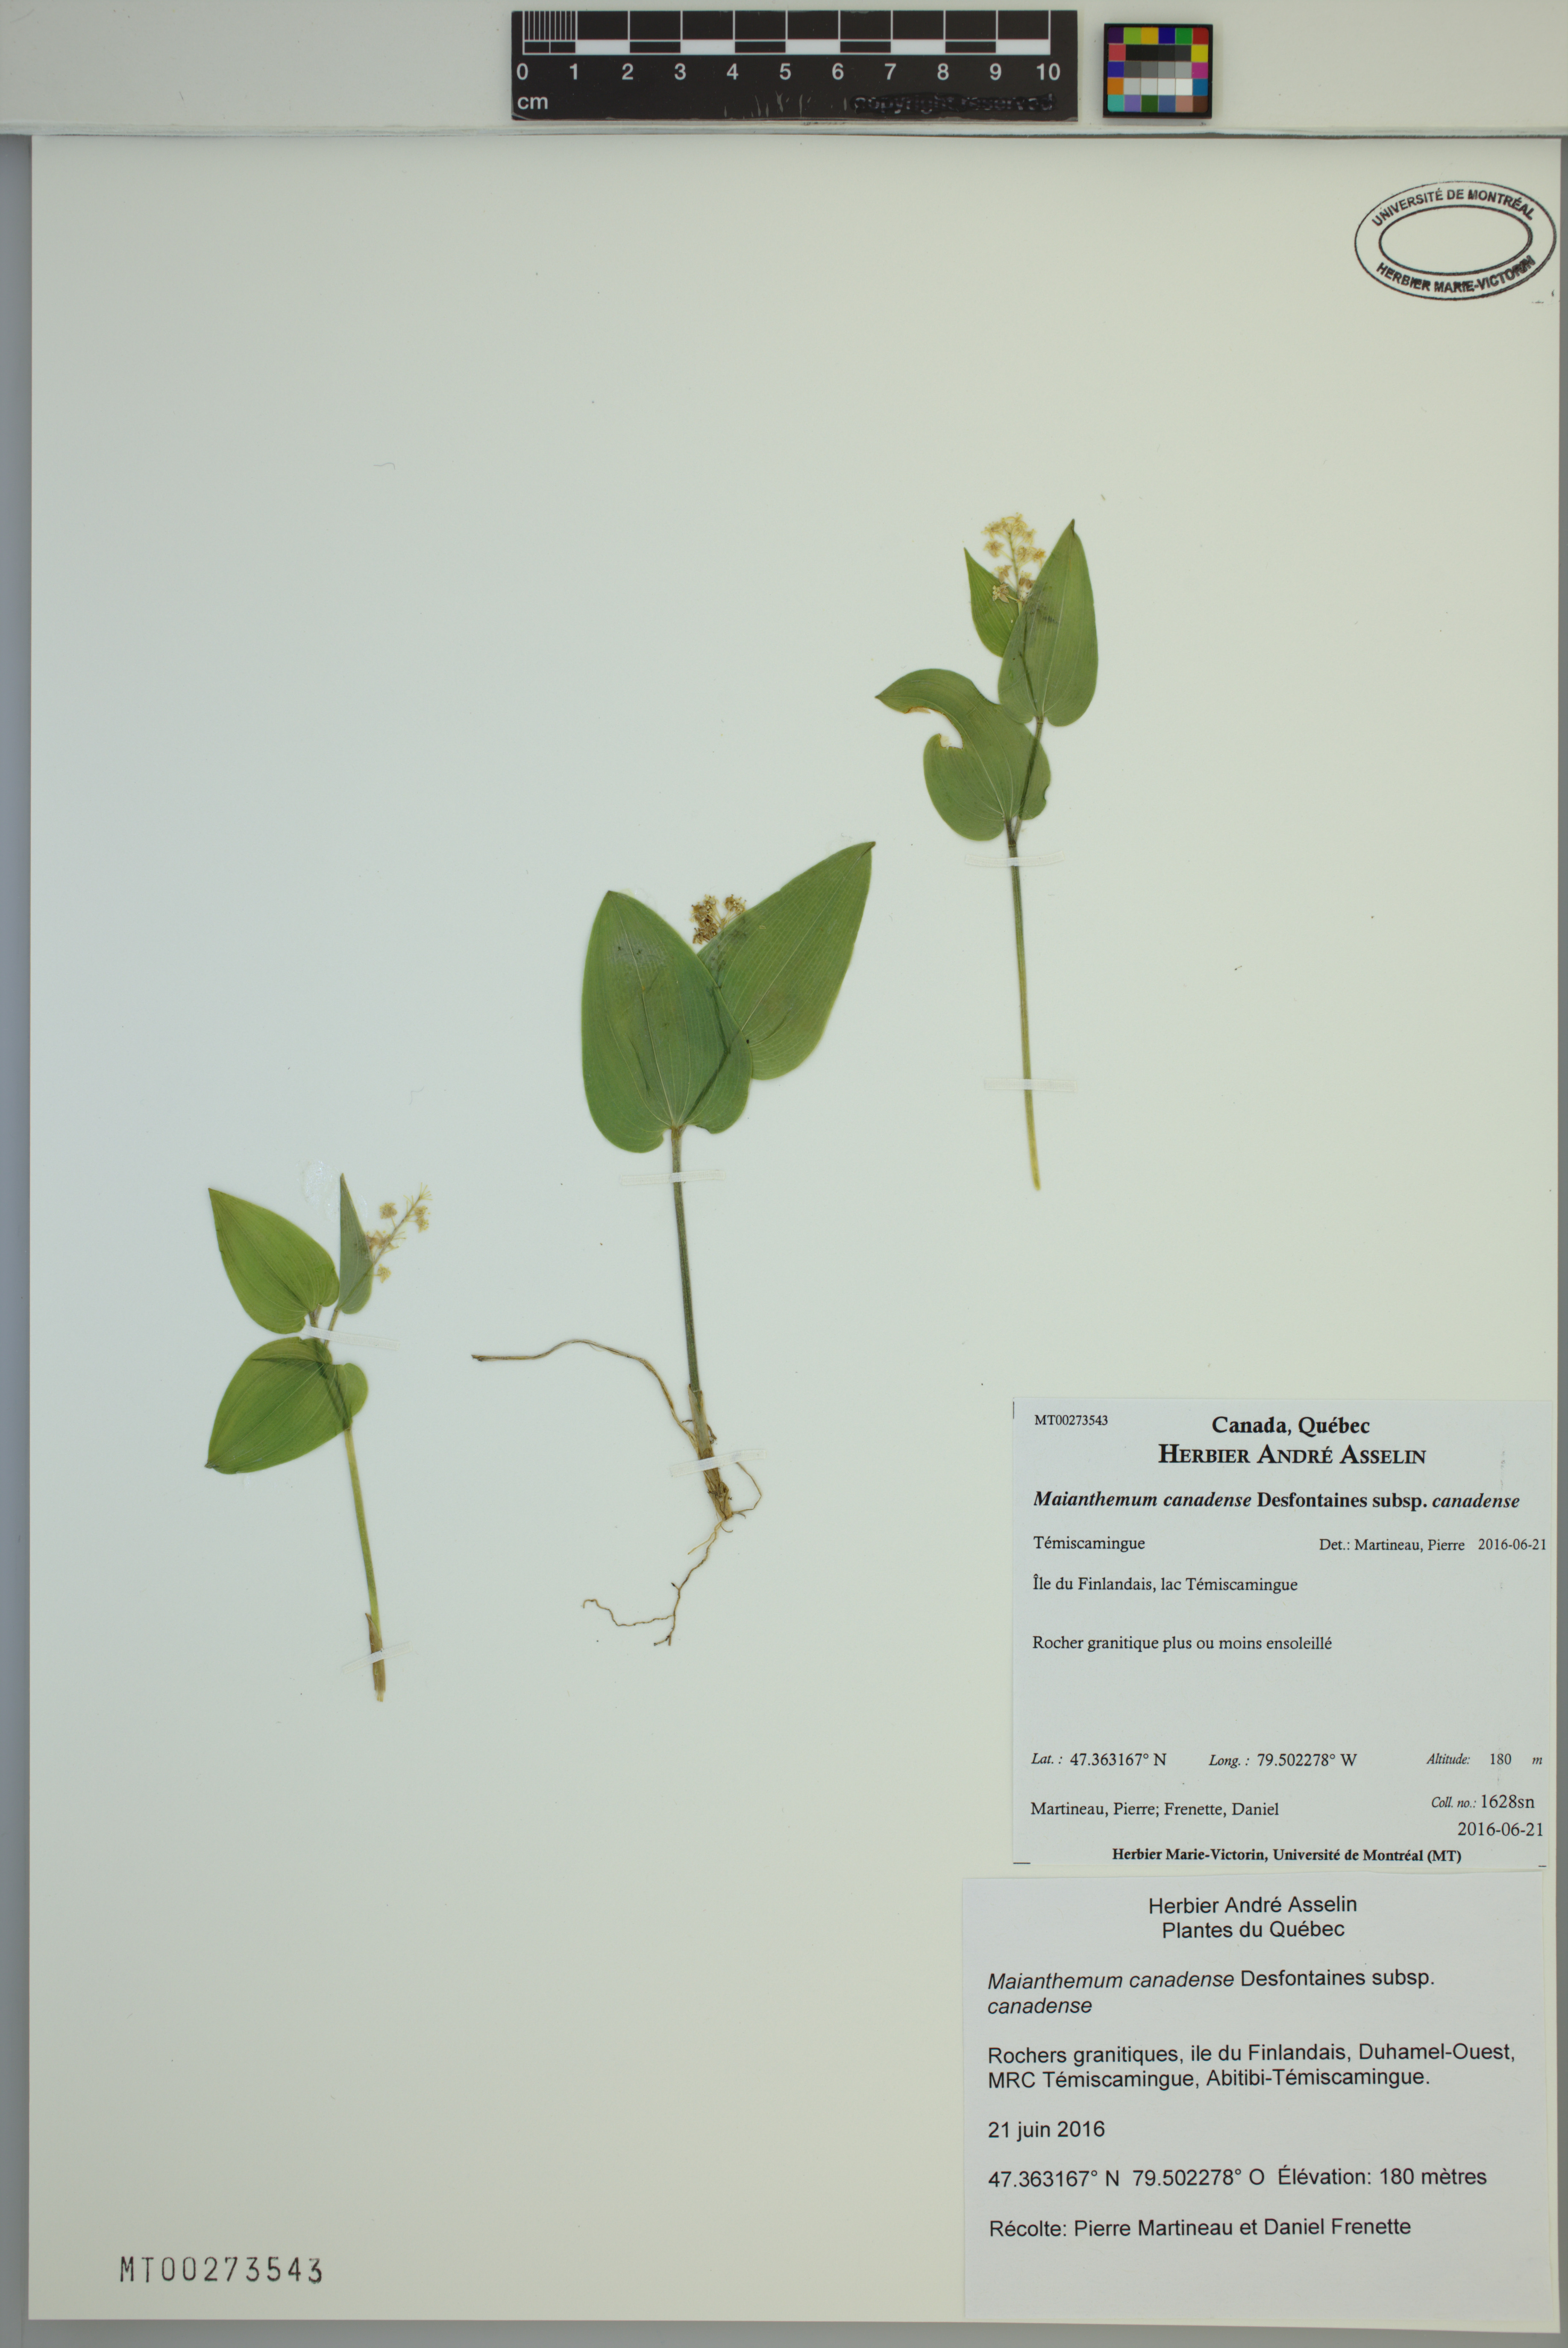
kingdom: Plantae
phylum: Tracheophyta
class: Liliopsida
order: Asparagales
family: Asparagaceae
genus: Maianthemum
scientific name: Maianthemum canadense
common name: False lily-of-the-valley
